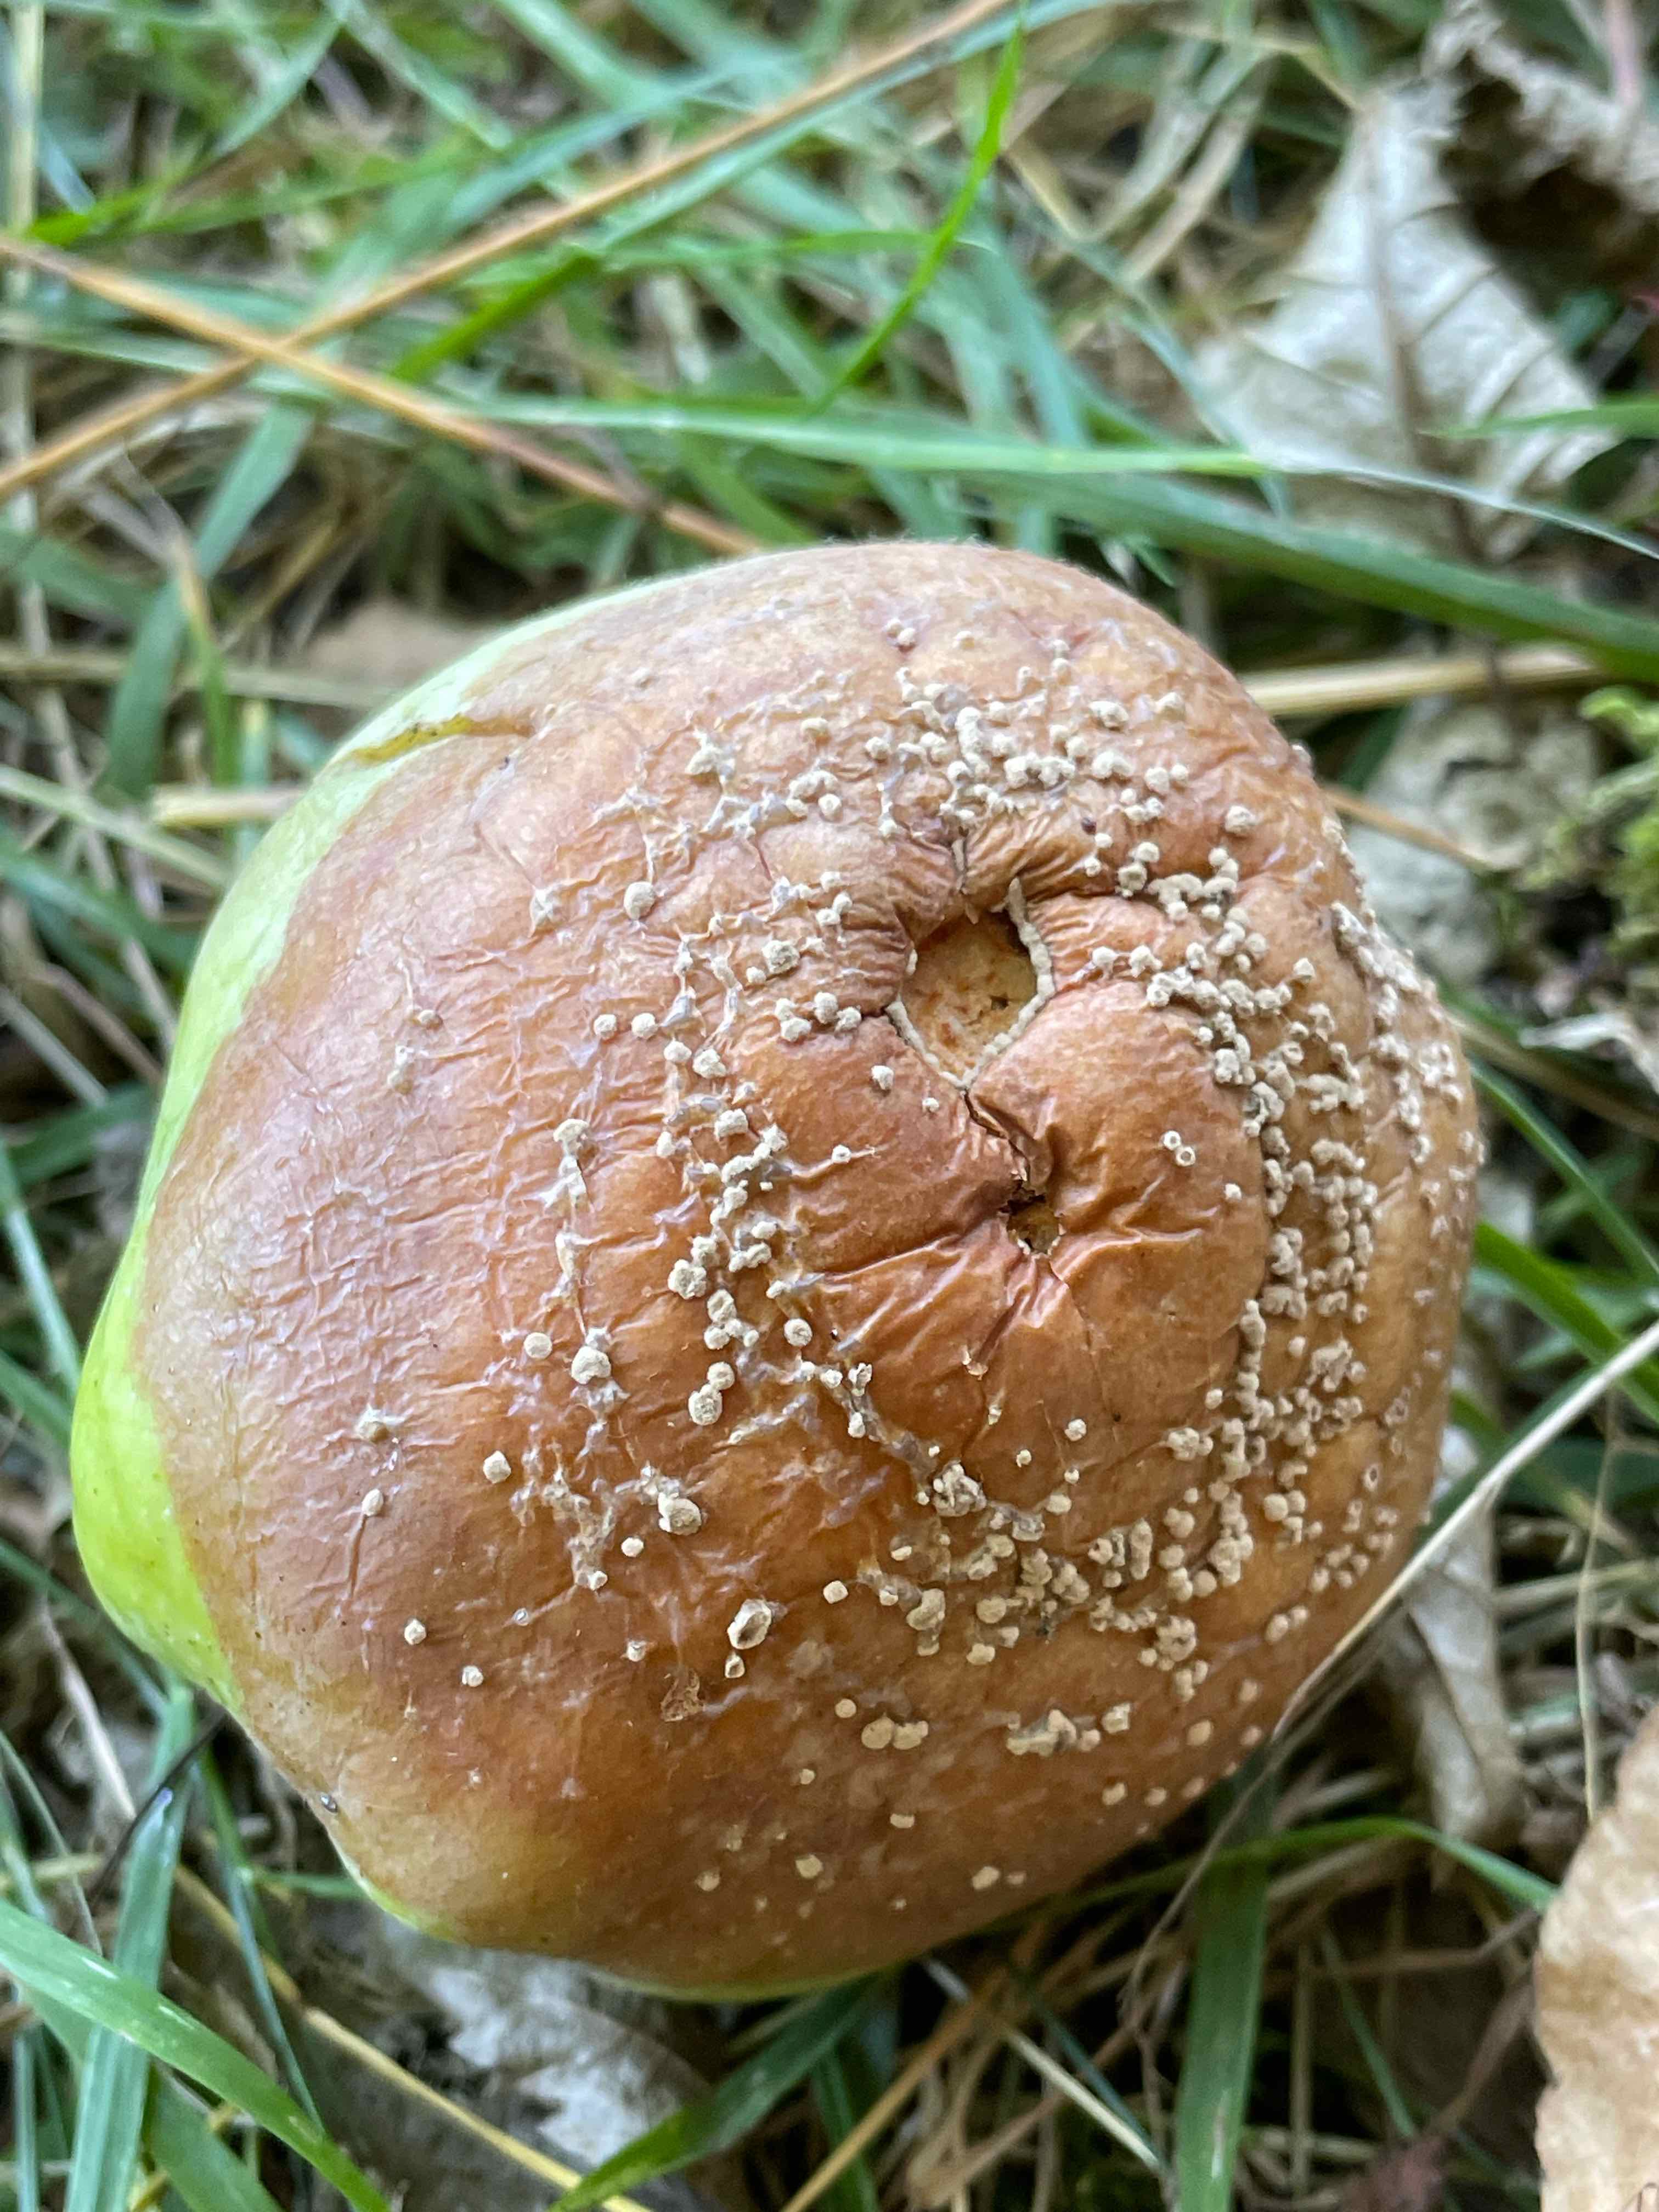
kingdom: Fungi
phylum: Ascomycota
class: Leotiomycetes
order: Helotiales
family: Sclerotiniaceae
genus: Monilinia
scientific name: Monilinia fructigena
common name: æble-knoldskive
